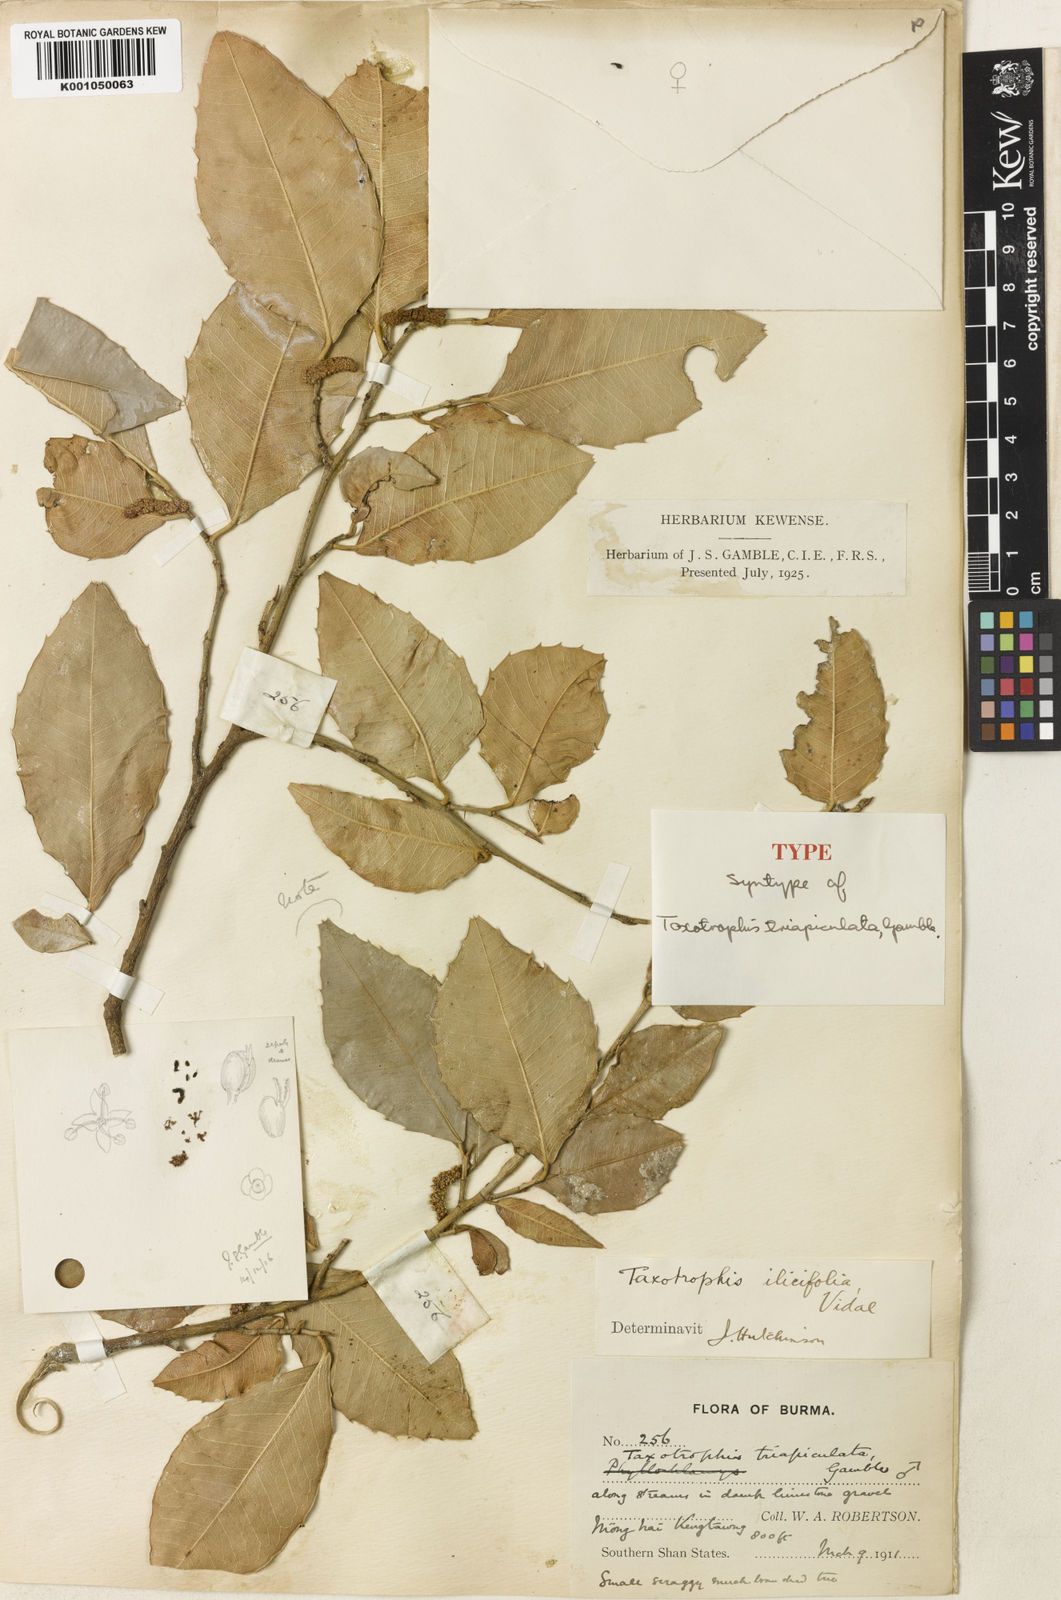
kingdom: Plantae
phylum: Tracheophyta
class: Magnoliopsida
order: Rosales
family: Moraceae
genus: Taxotrophis
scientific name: Taxotrophis ilicifolia
